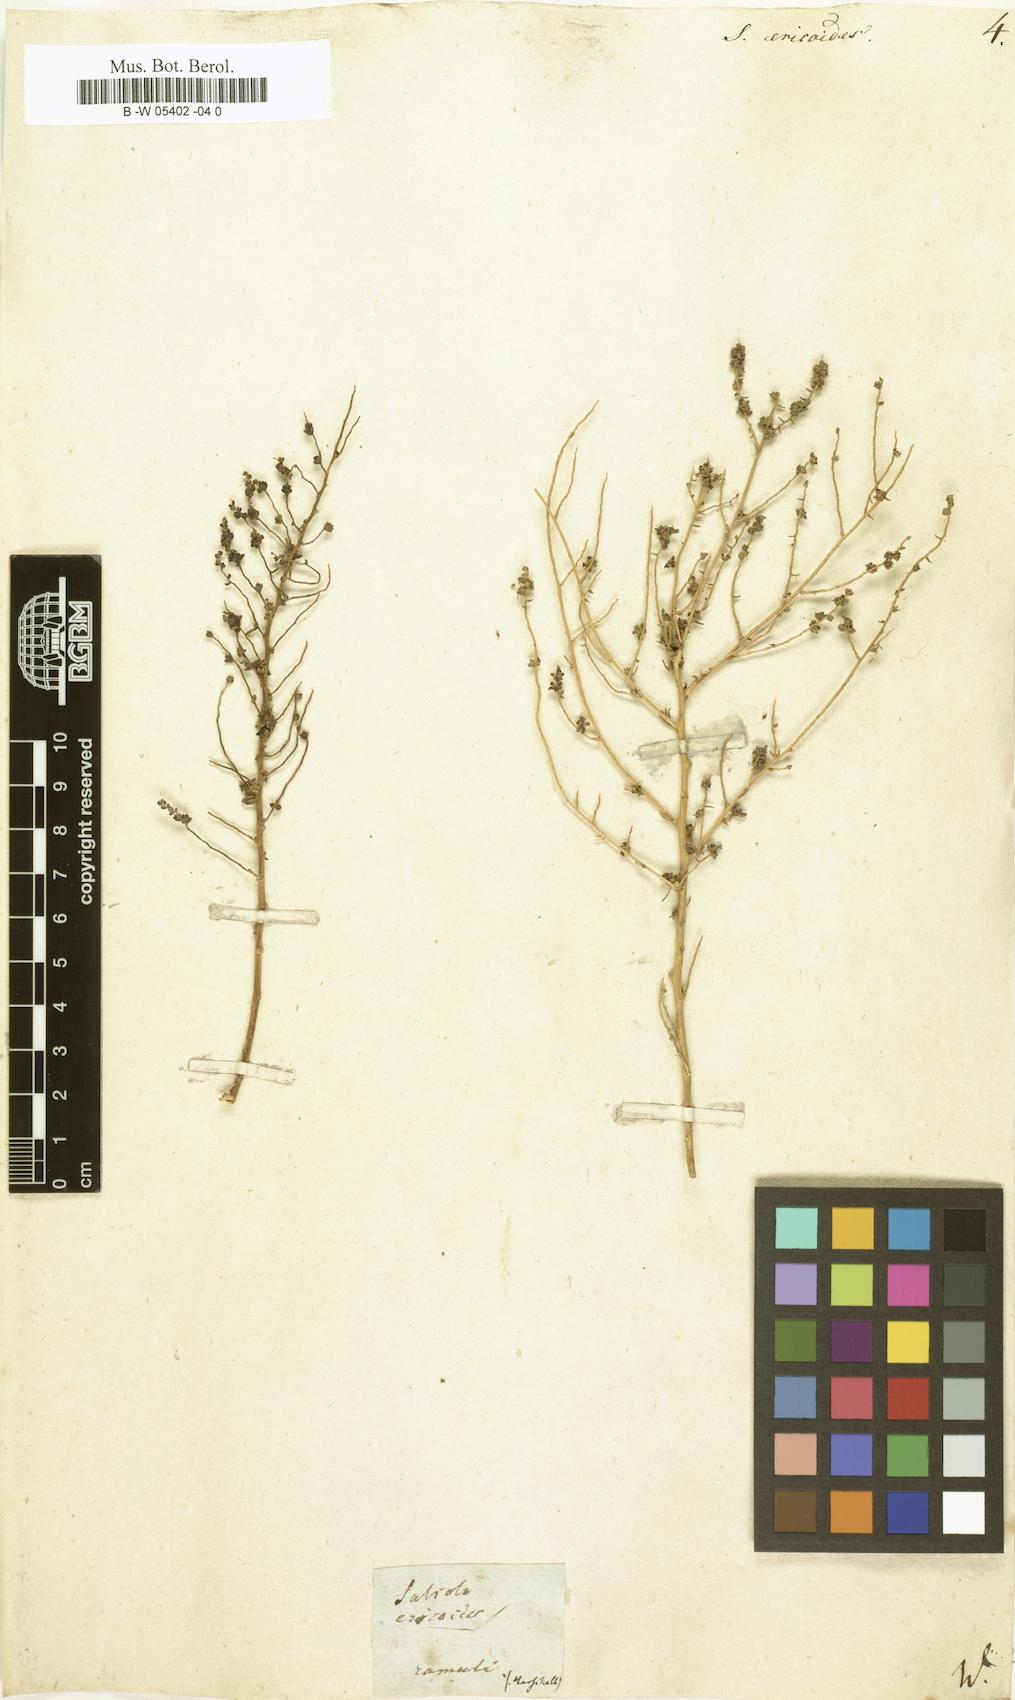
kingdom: Plantae
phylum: Tracheophyta
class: Magnoliopsida
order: Caryophyllales
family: Amaranthaceae
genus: Nitrosalsola
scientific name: Nitrosalsola ericoides
